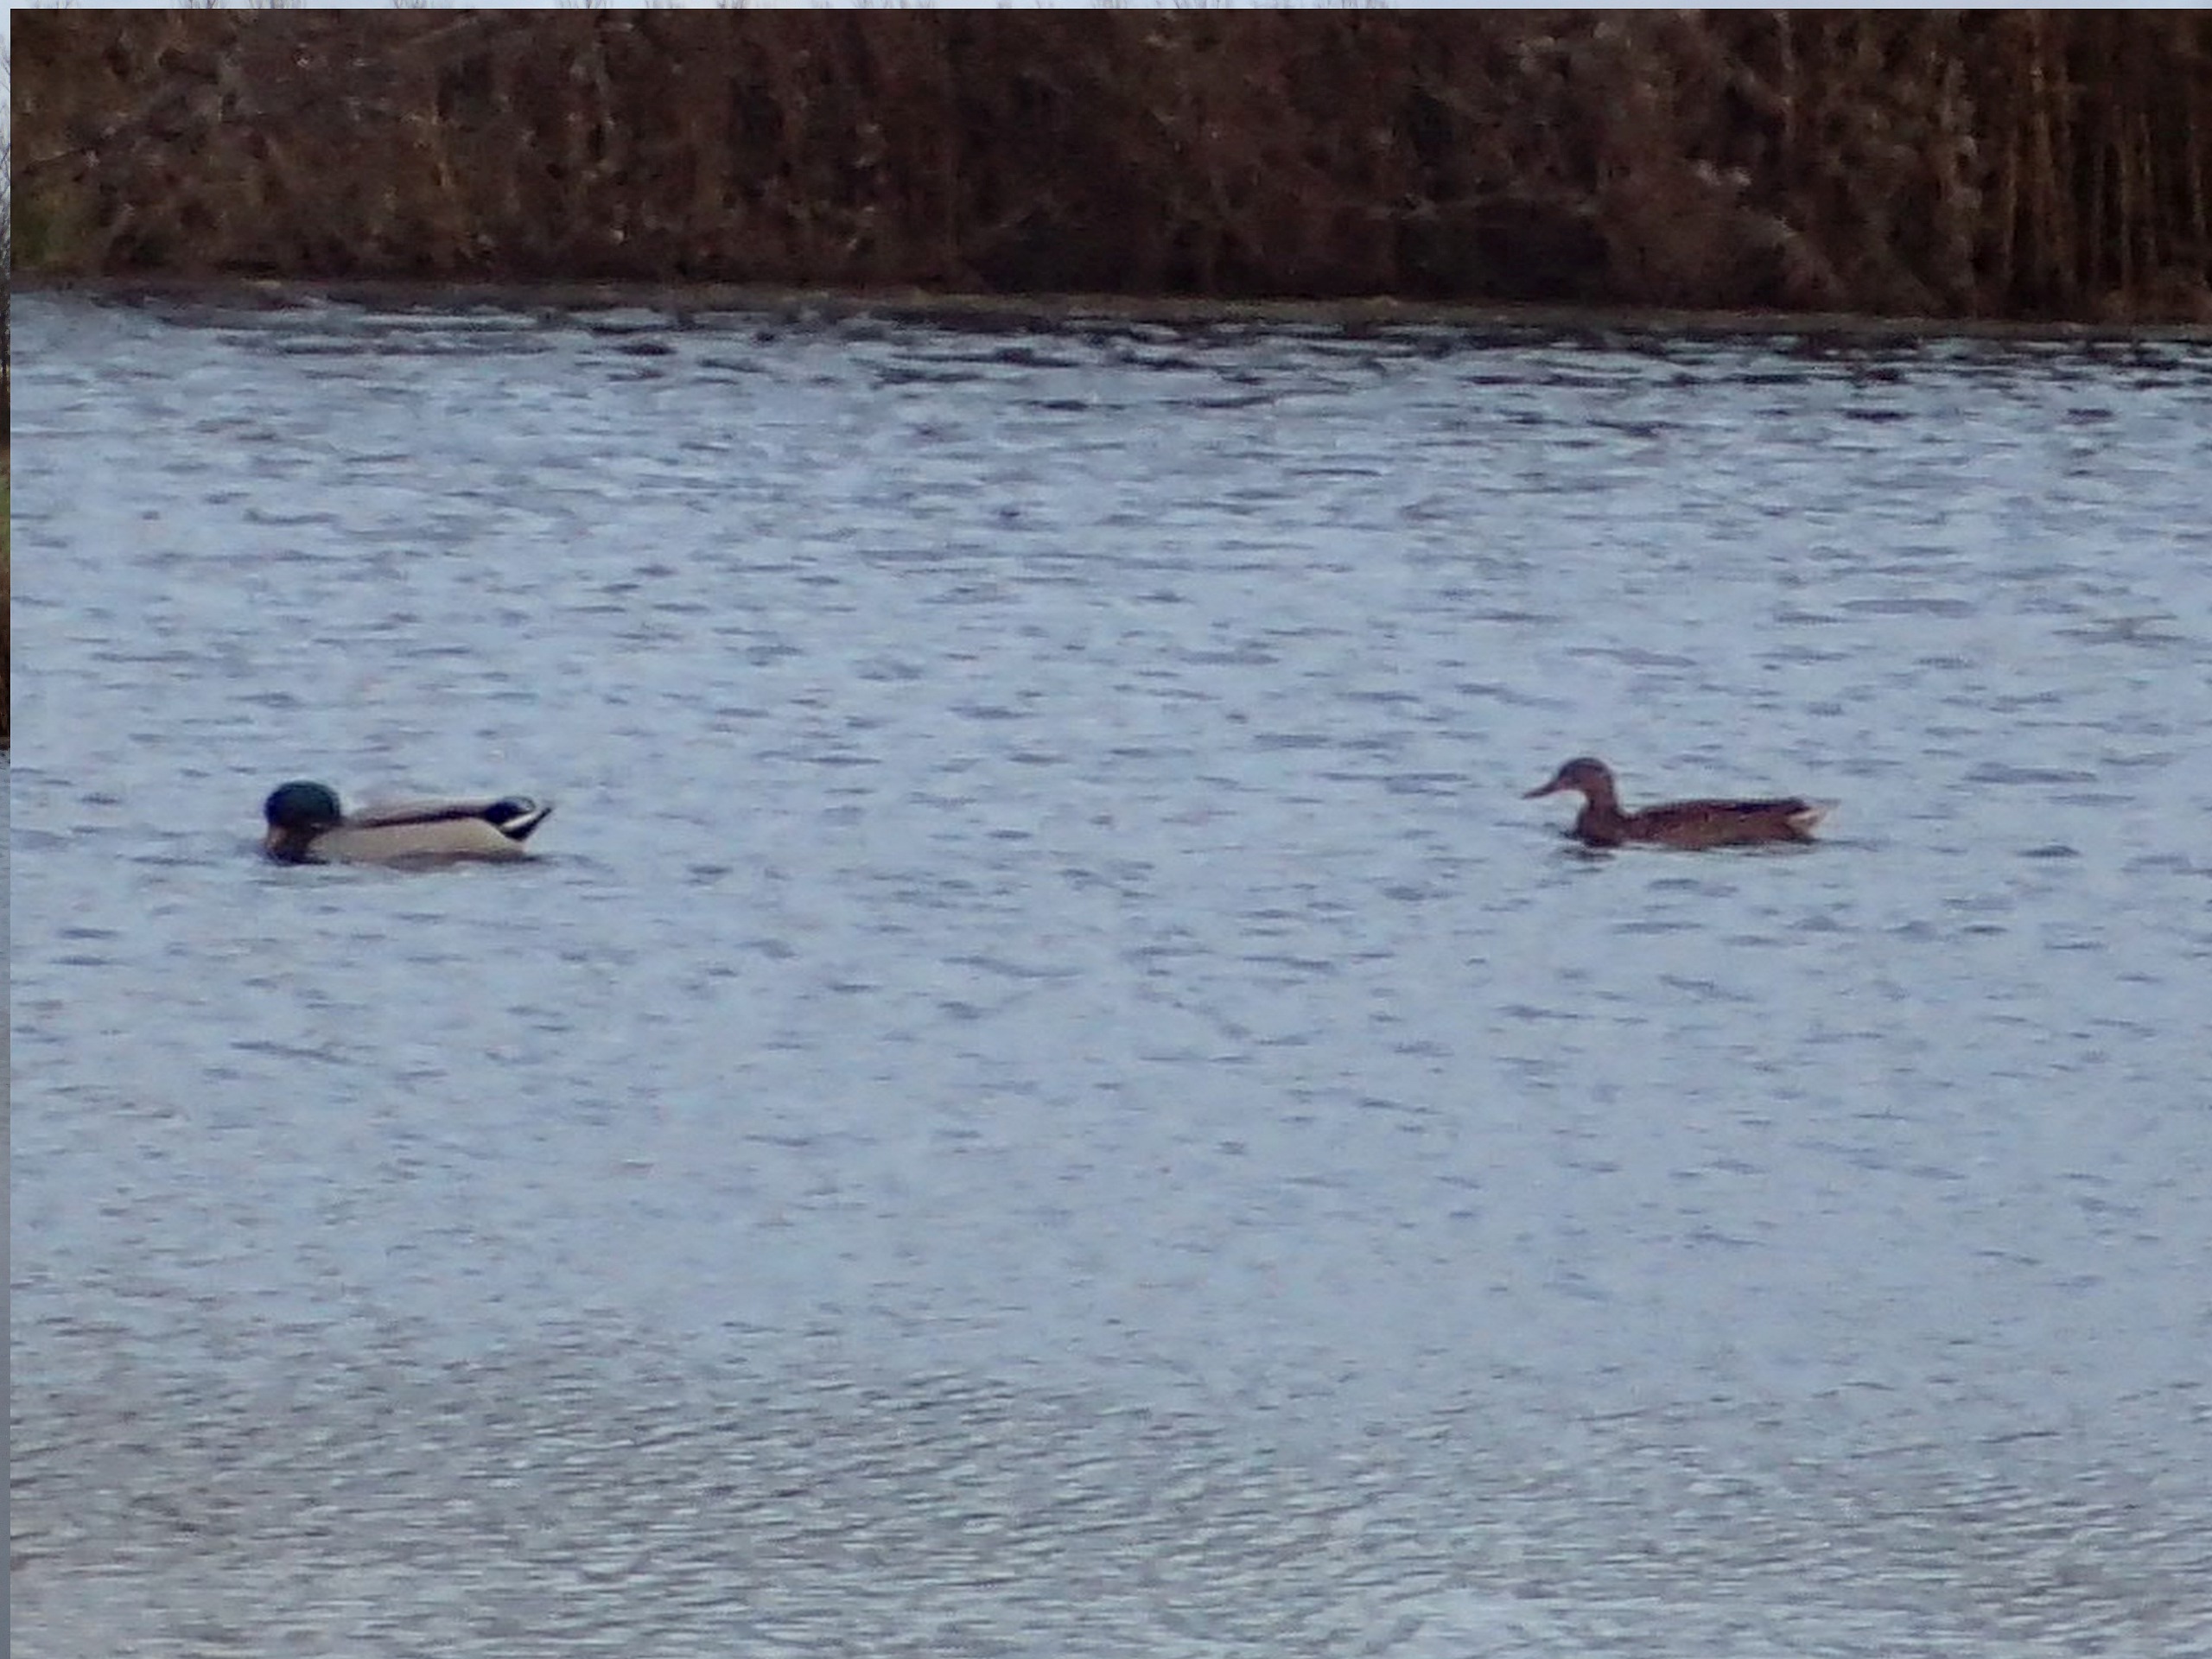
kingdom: Animalia
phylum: Chordata
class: Aves
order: Anseriformes
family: Anatidae
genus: Anas
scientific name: Anas platyrhynchos
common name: Gråand
